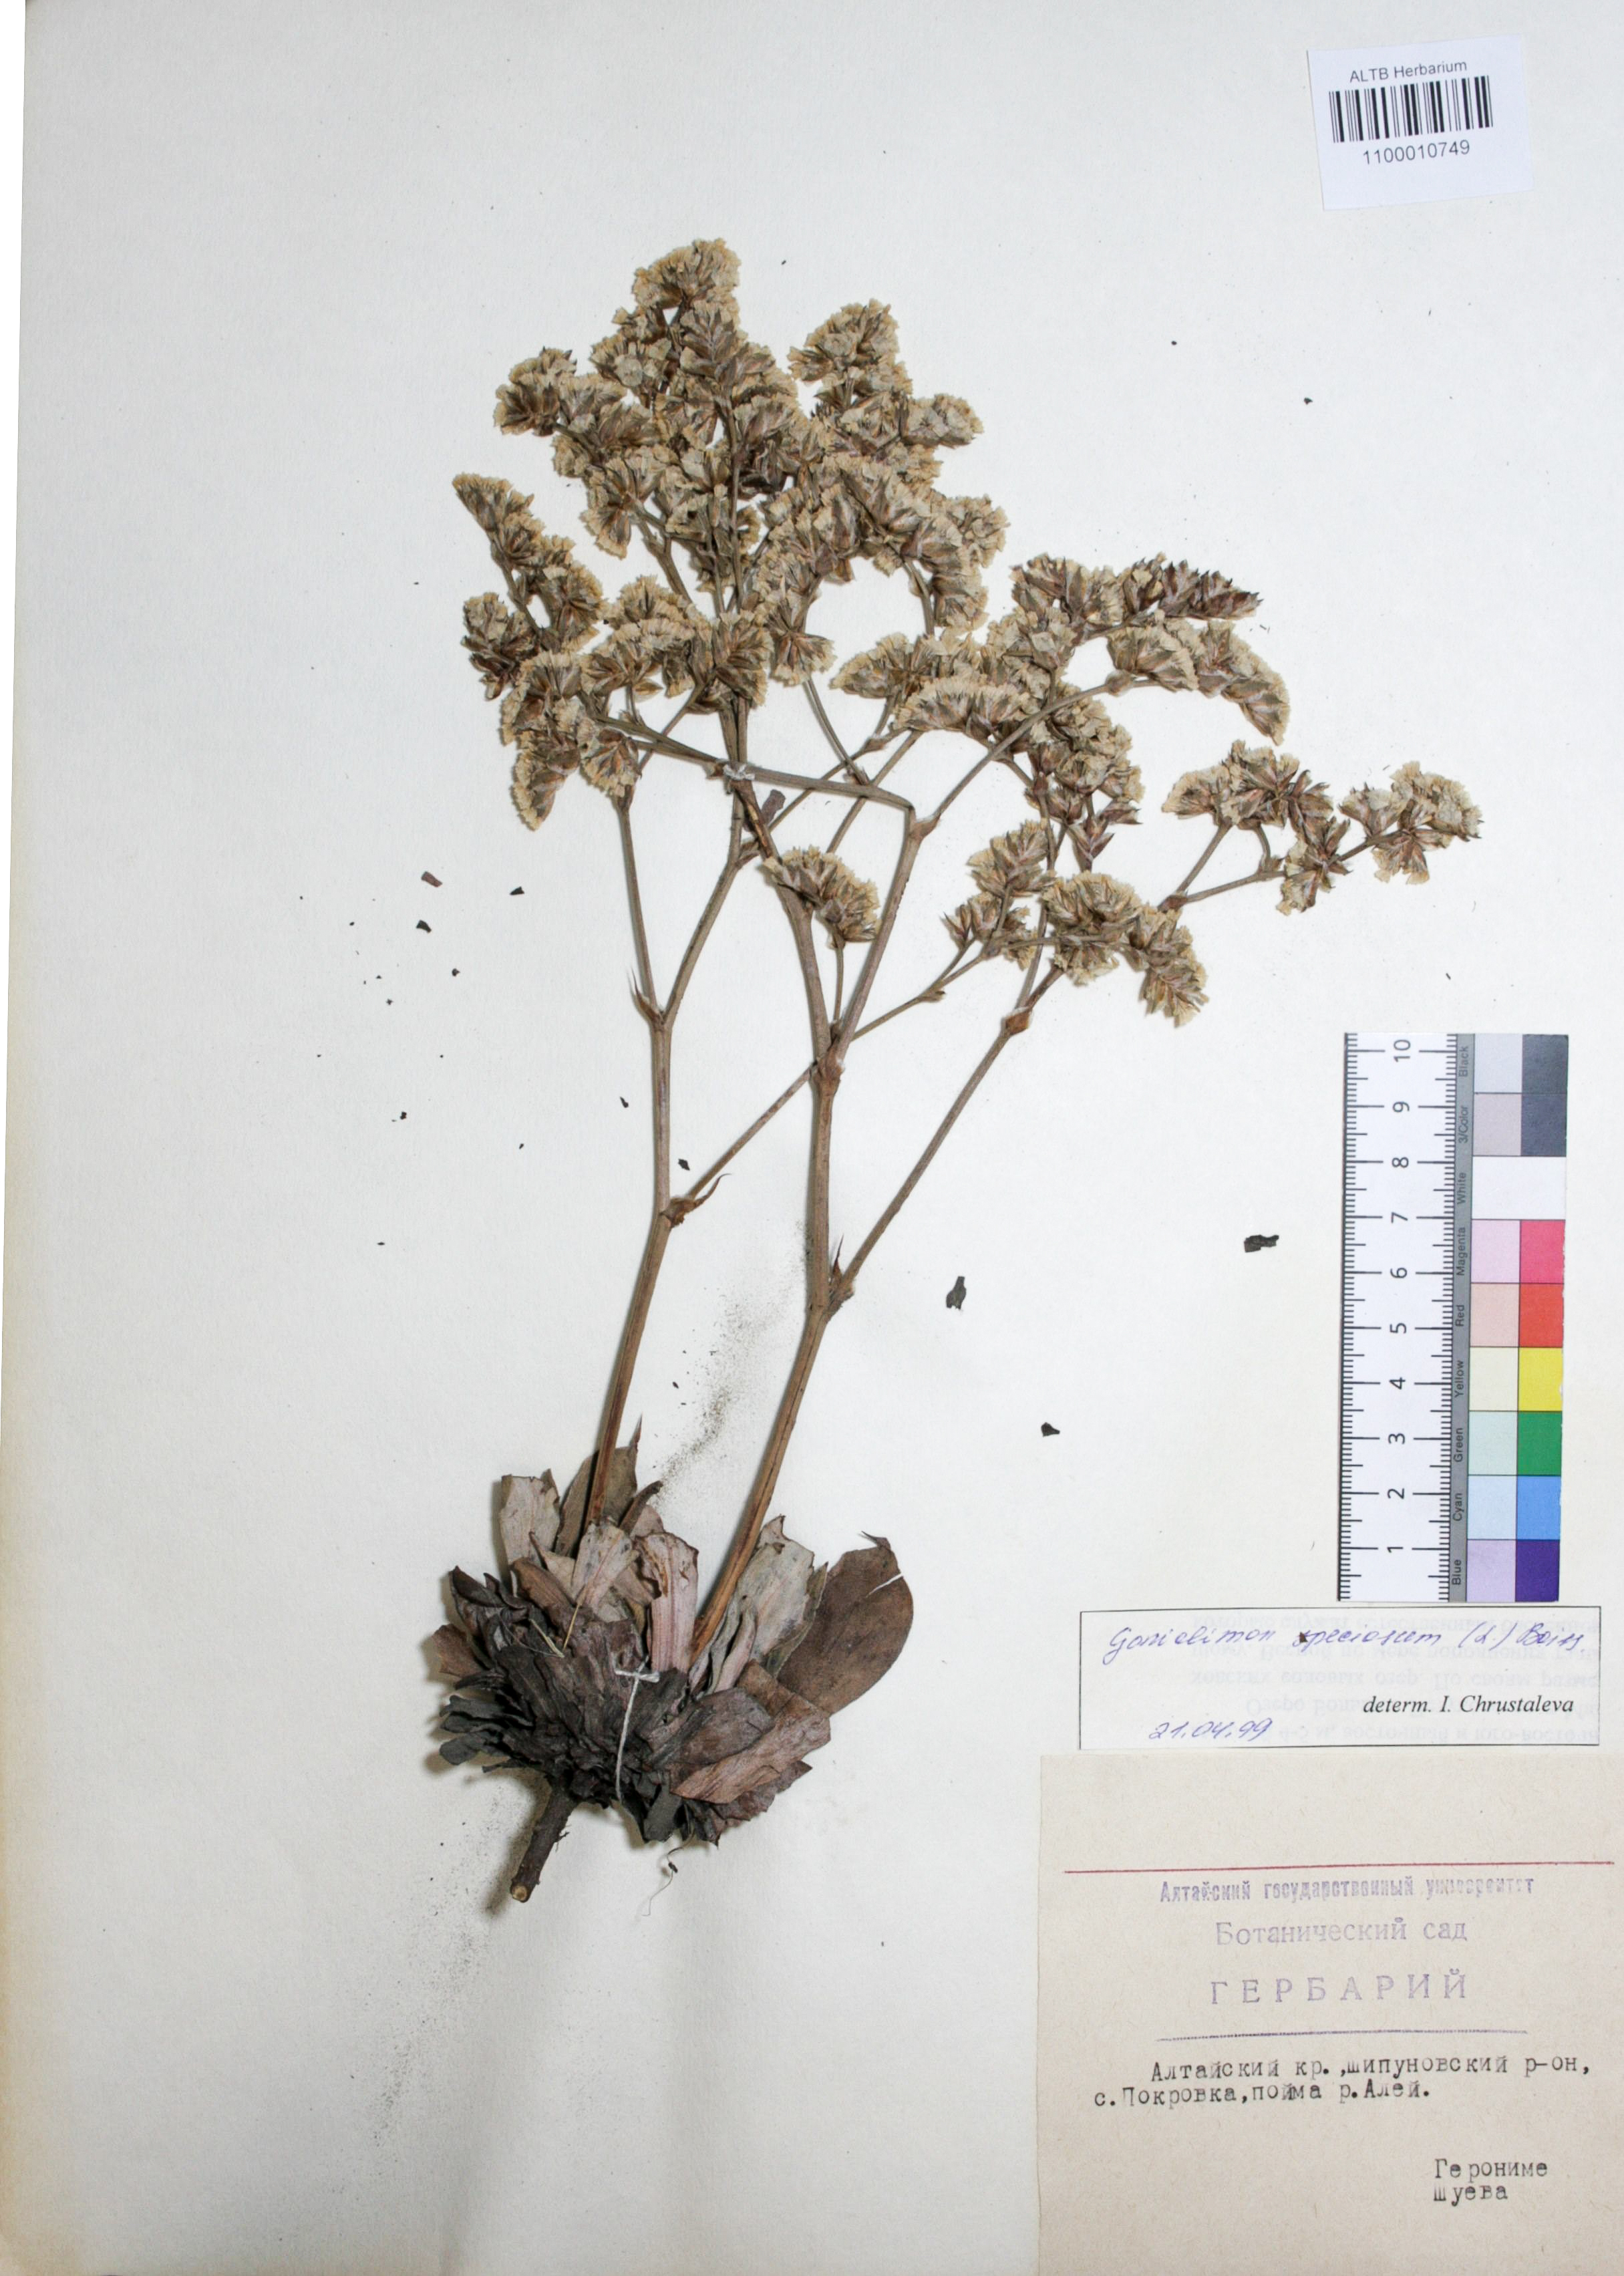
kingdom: Plantae
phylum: Tracheophyta
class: Magnoliopsida
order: Caryophyllales
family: Plumbaginaceae
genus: Goniolimon
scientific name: Goniolimon speciosum
